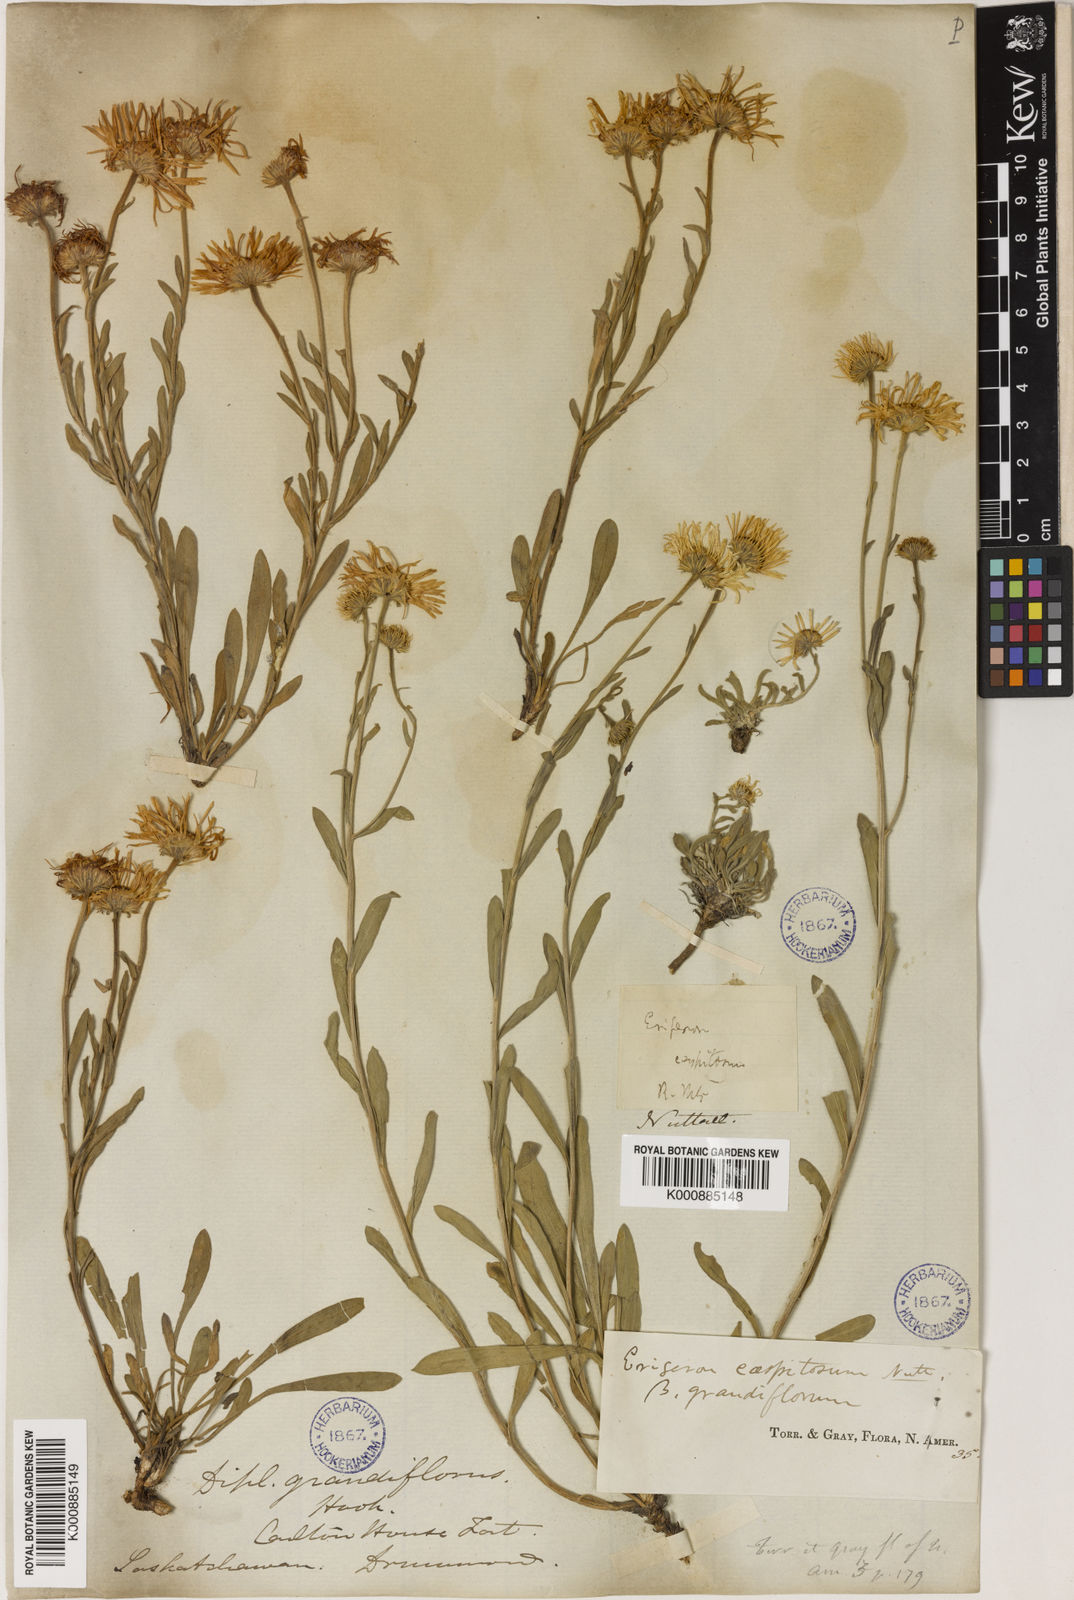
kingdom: Plantae
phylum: Tracheophyta
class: Magnoliopsida
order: Asterales
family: Asteraceae
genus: Erigeron
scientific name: Erigeron caespitosus
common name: Tufted fleabane
